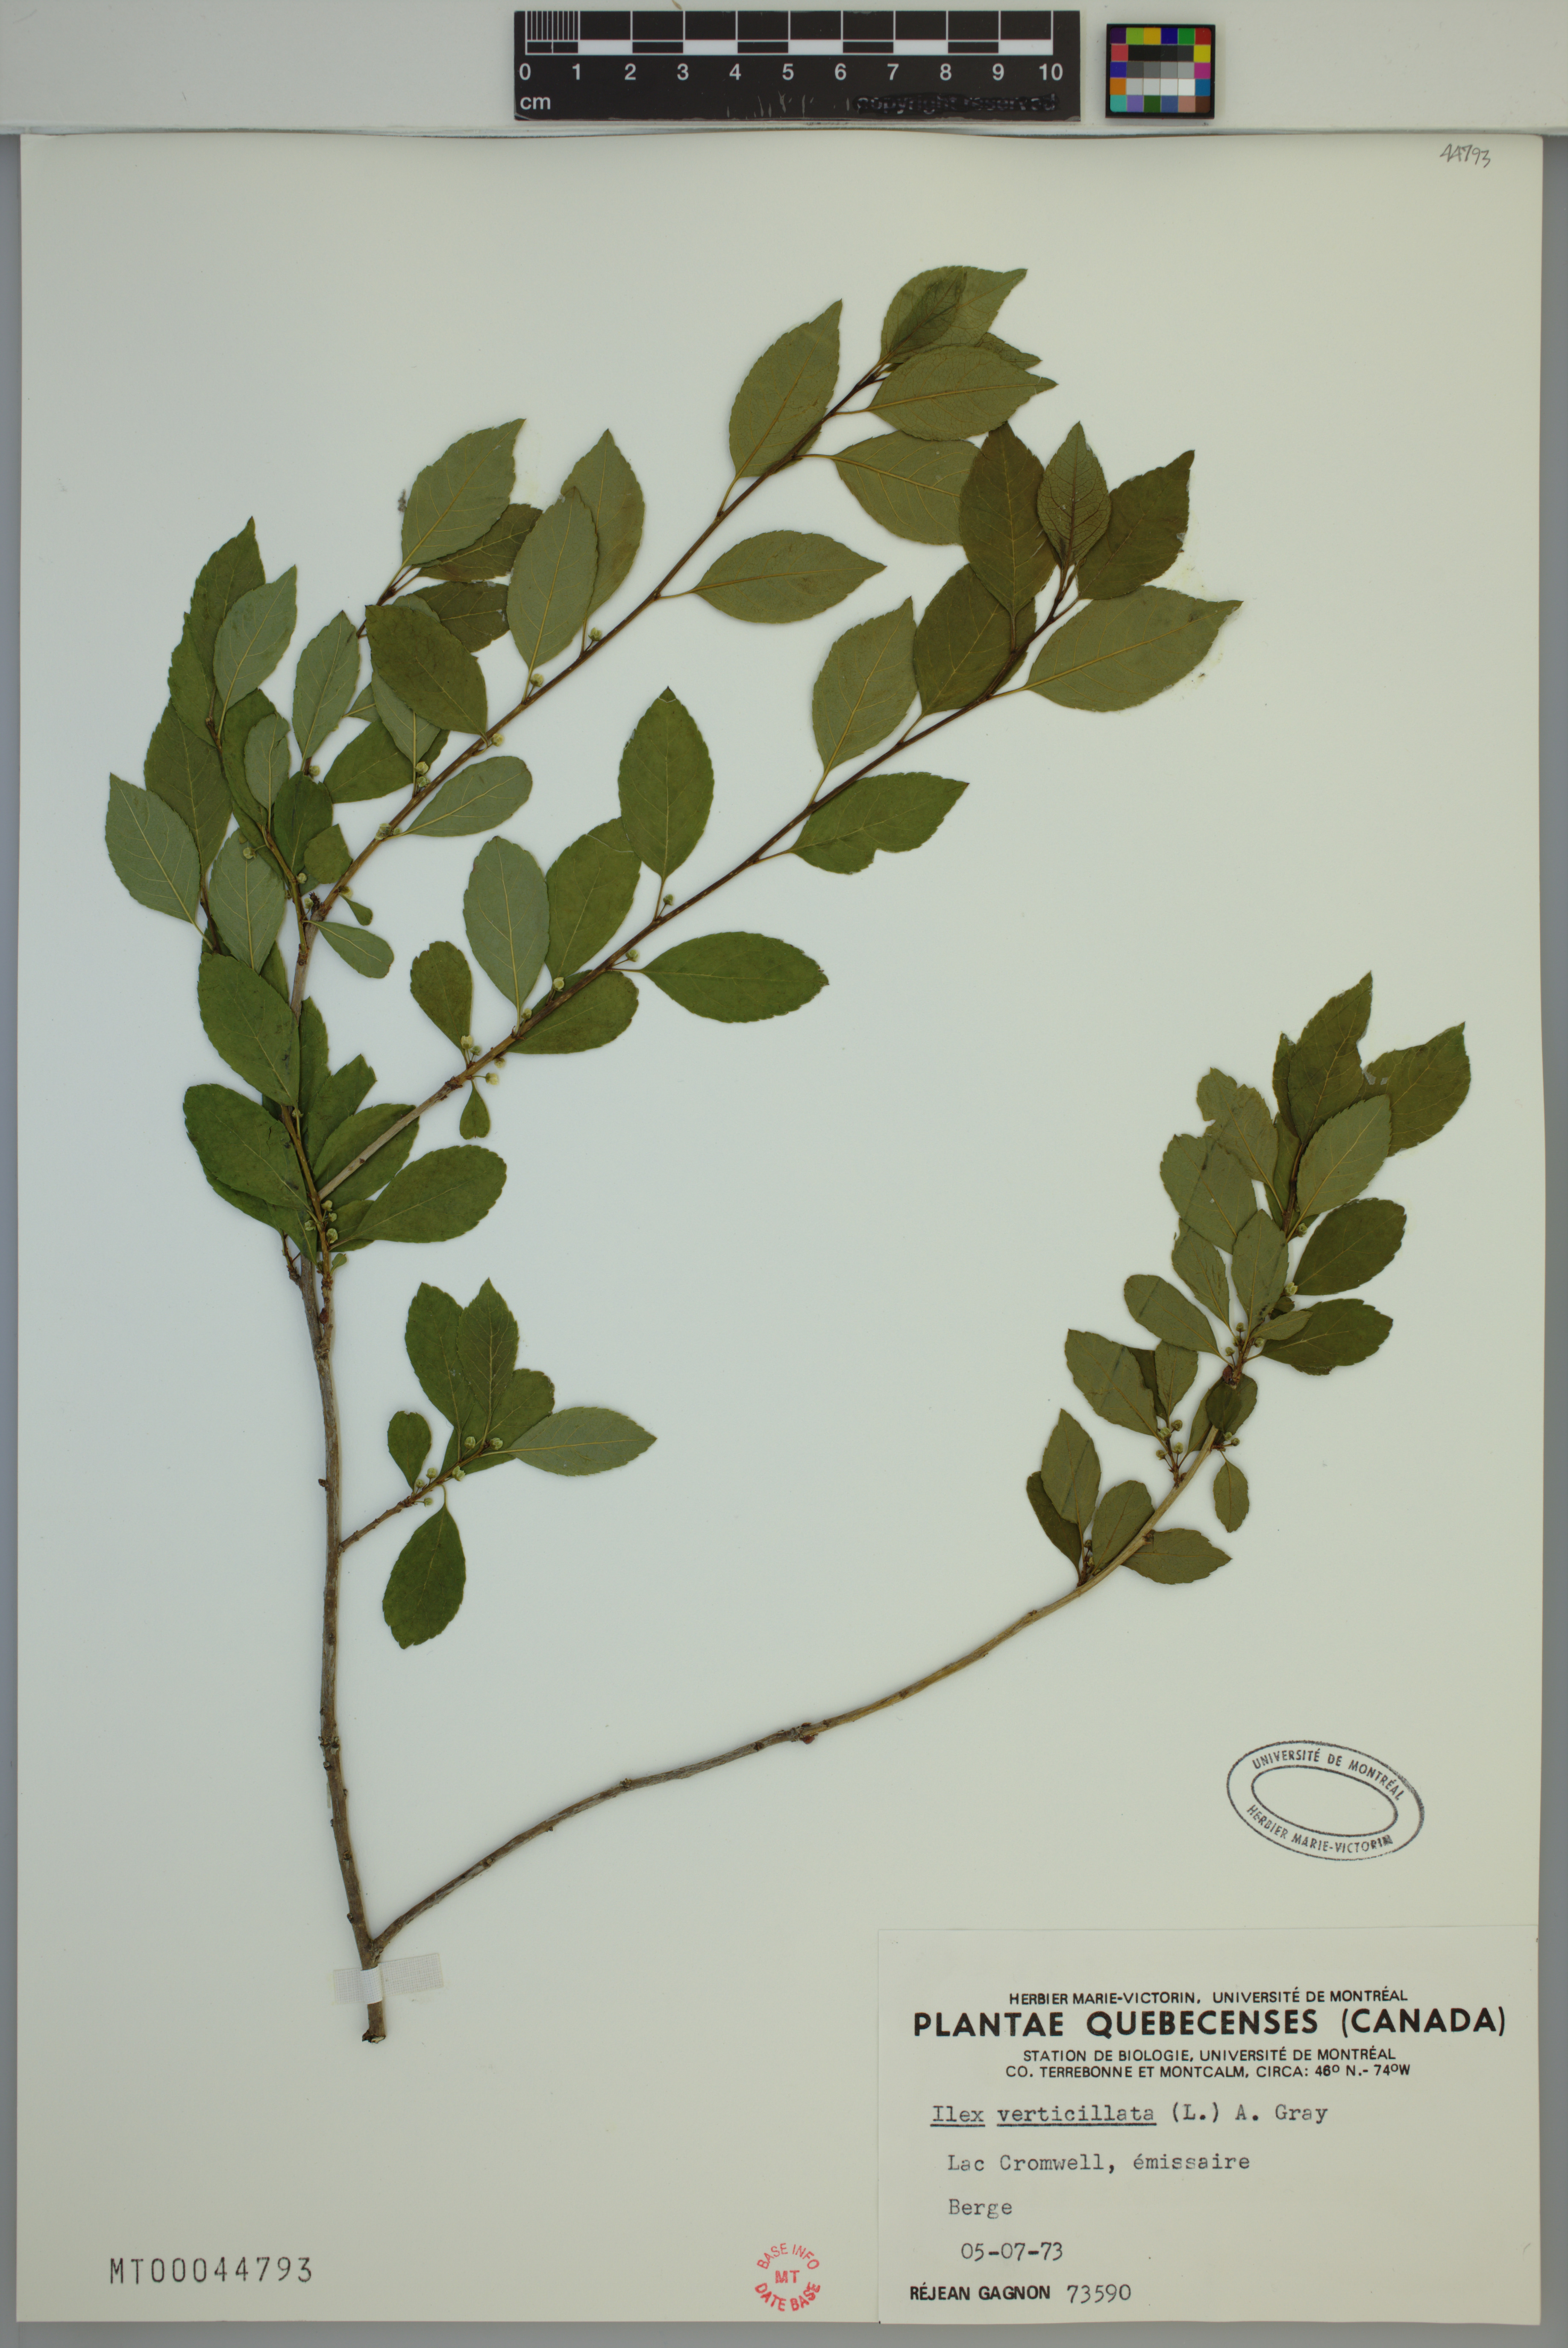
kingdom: Plantae
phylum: Tracheophyta
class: Magnoliopsida
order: Aquifoliales
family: Aquifoliaceae
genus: Ilex
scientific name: Ilex verticillata
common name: Virginia winterberry
